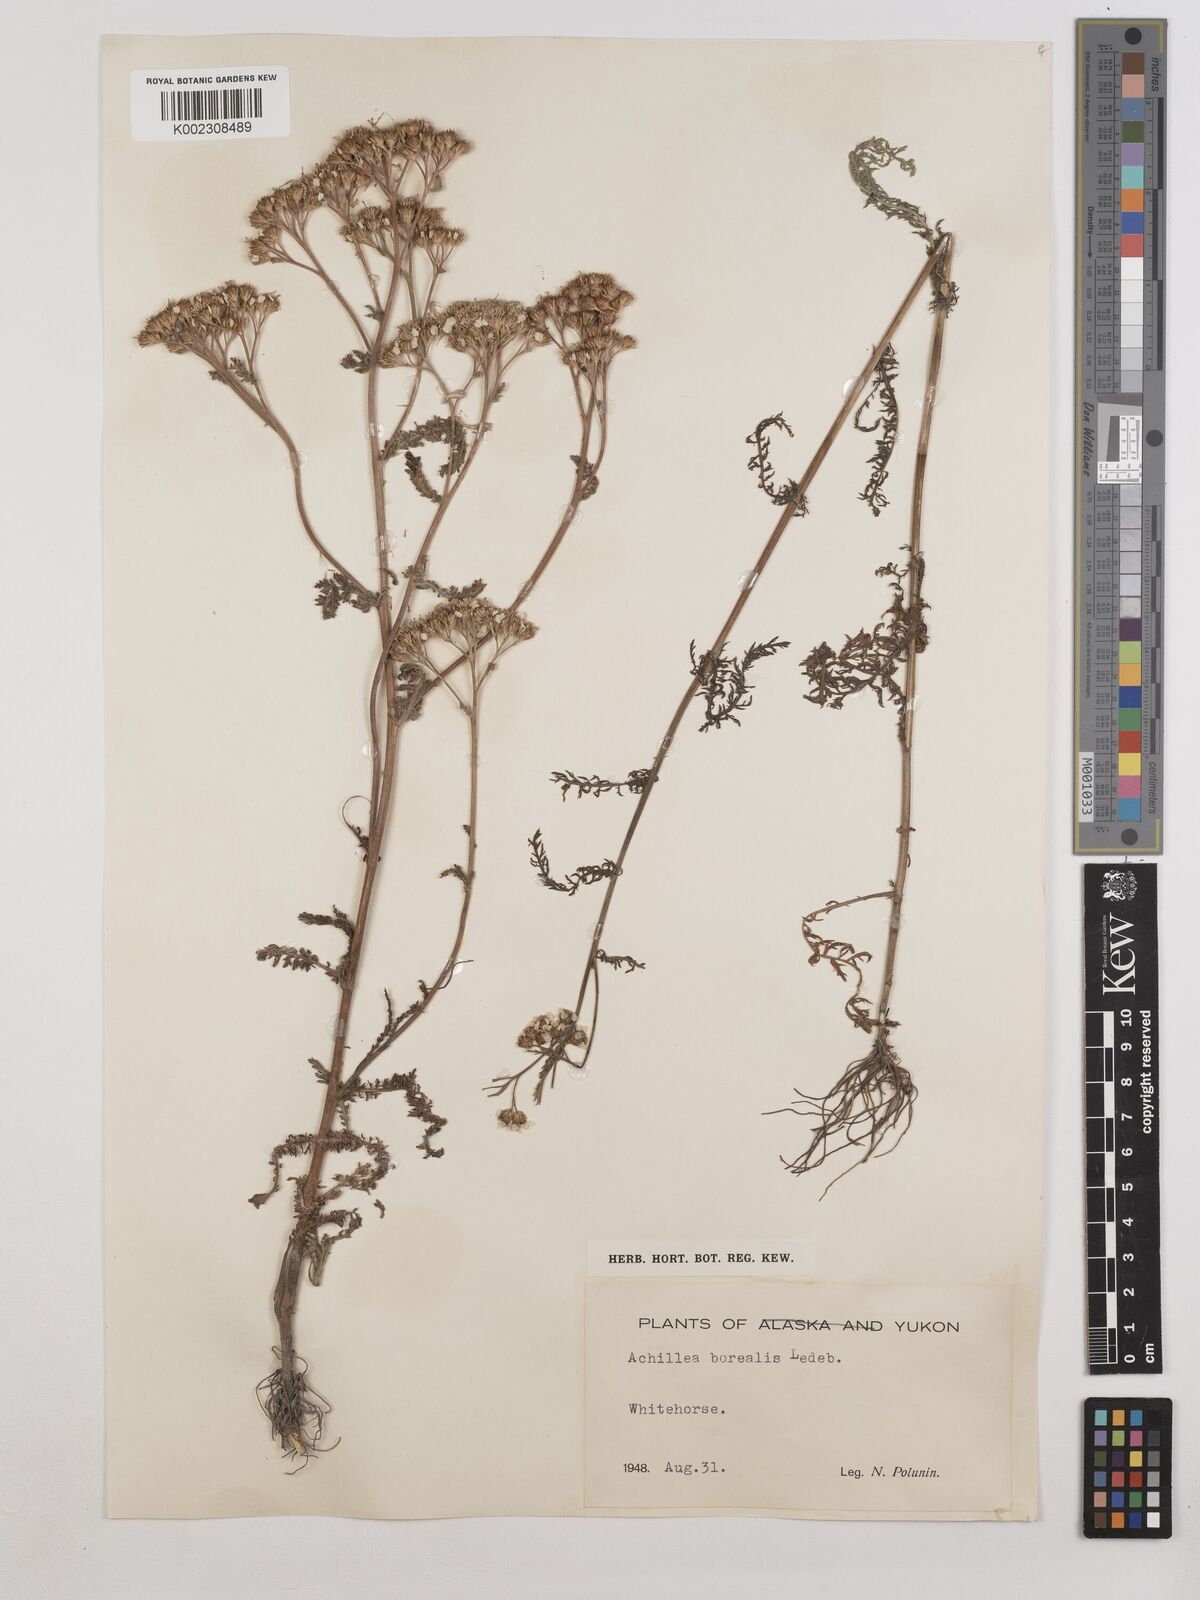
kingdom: Plantae
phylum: Tracheophyta
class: Magnoliopsida
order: Asterales
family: Asteraceae
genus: Achillea
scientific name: Achillea millefolium
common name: Yarrow
